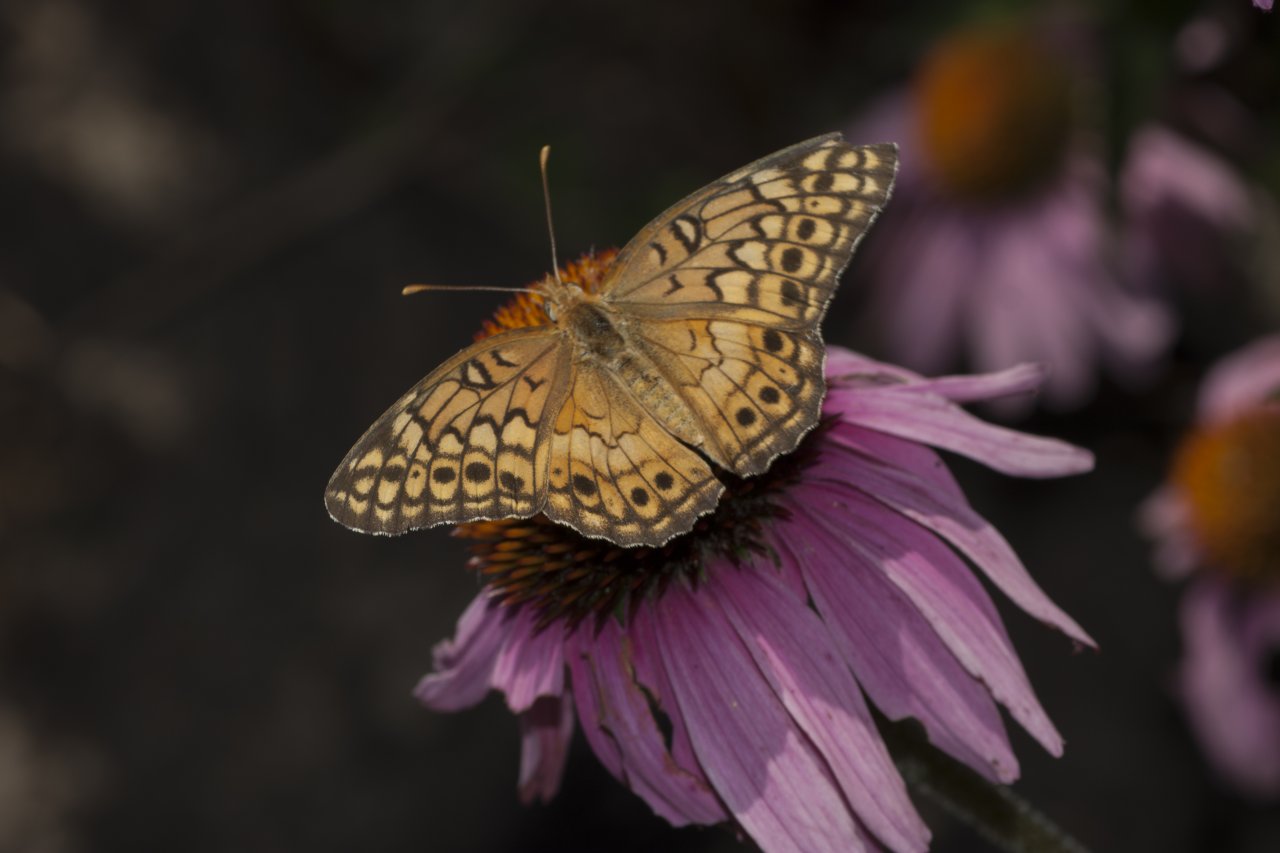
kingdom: Animalia
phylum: Arthropoda
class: Insecta
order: Lepidoptera
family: Nymphalidae
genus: Euptoieta
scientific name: Euptoieta claudia
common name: Variegated Fritillary
